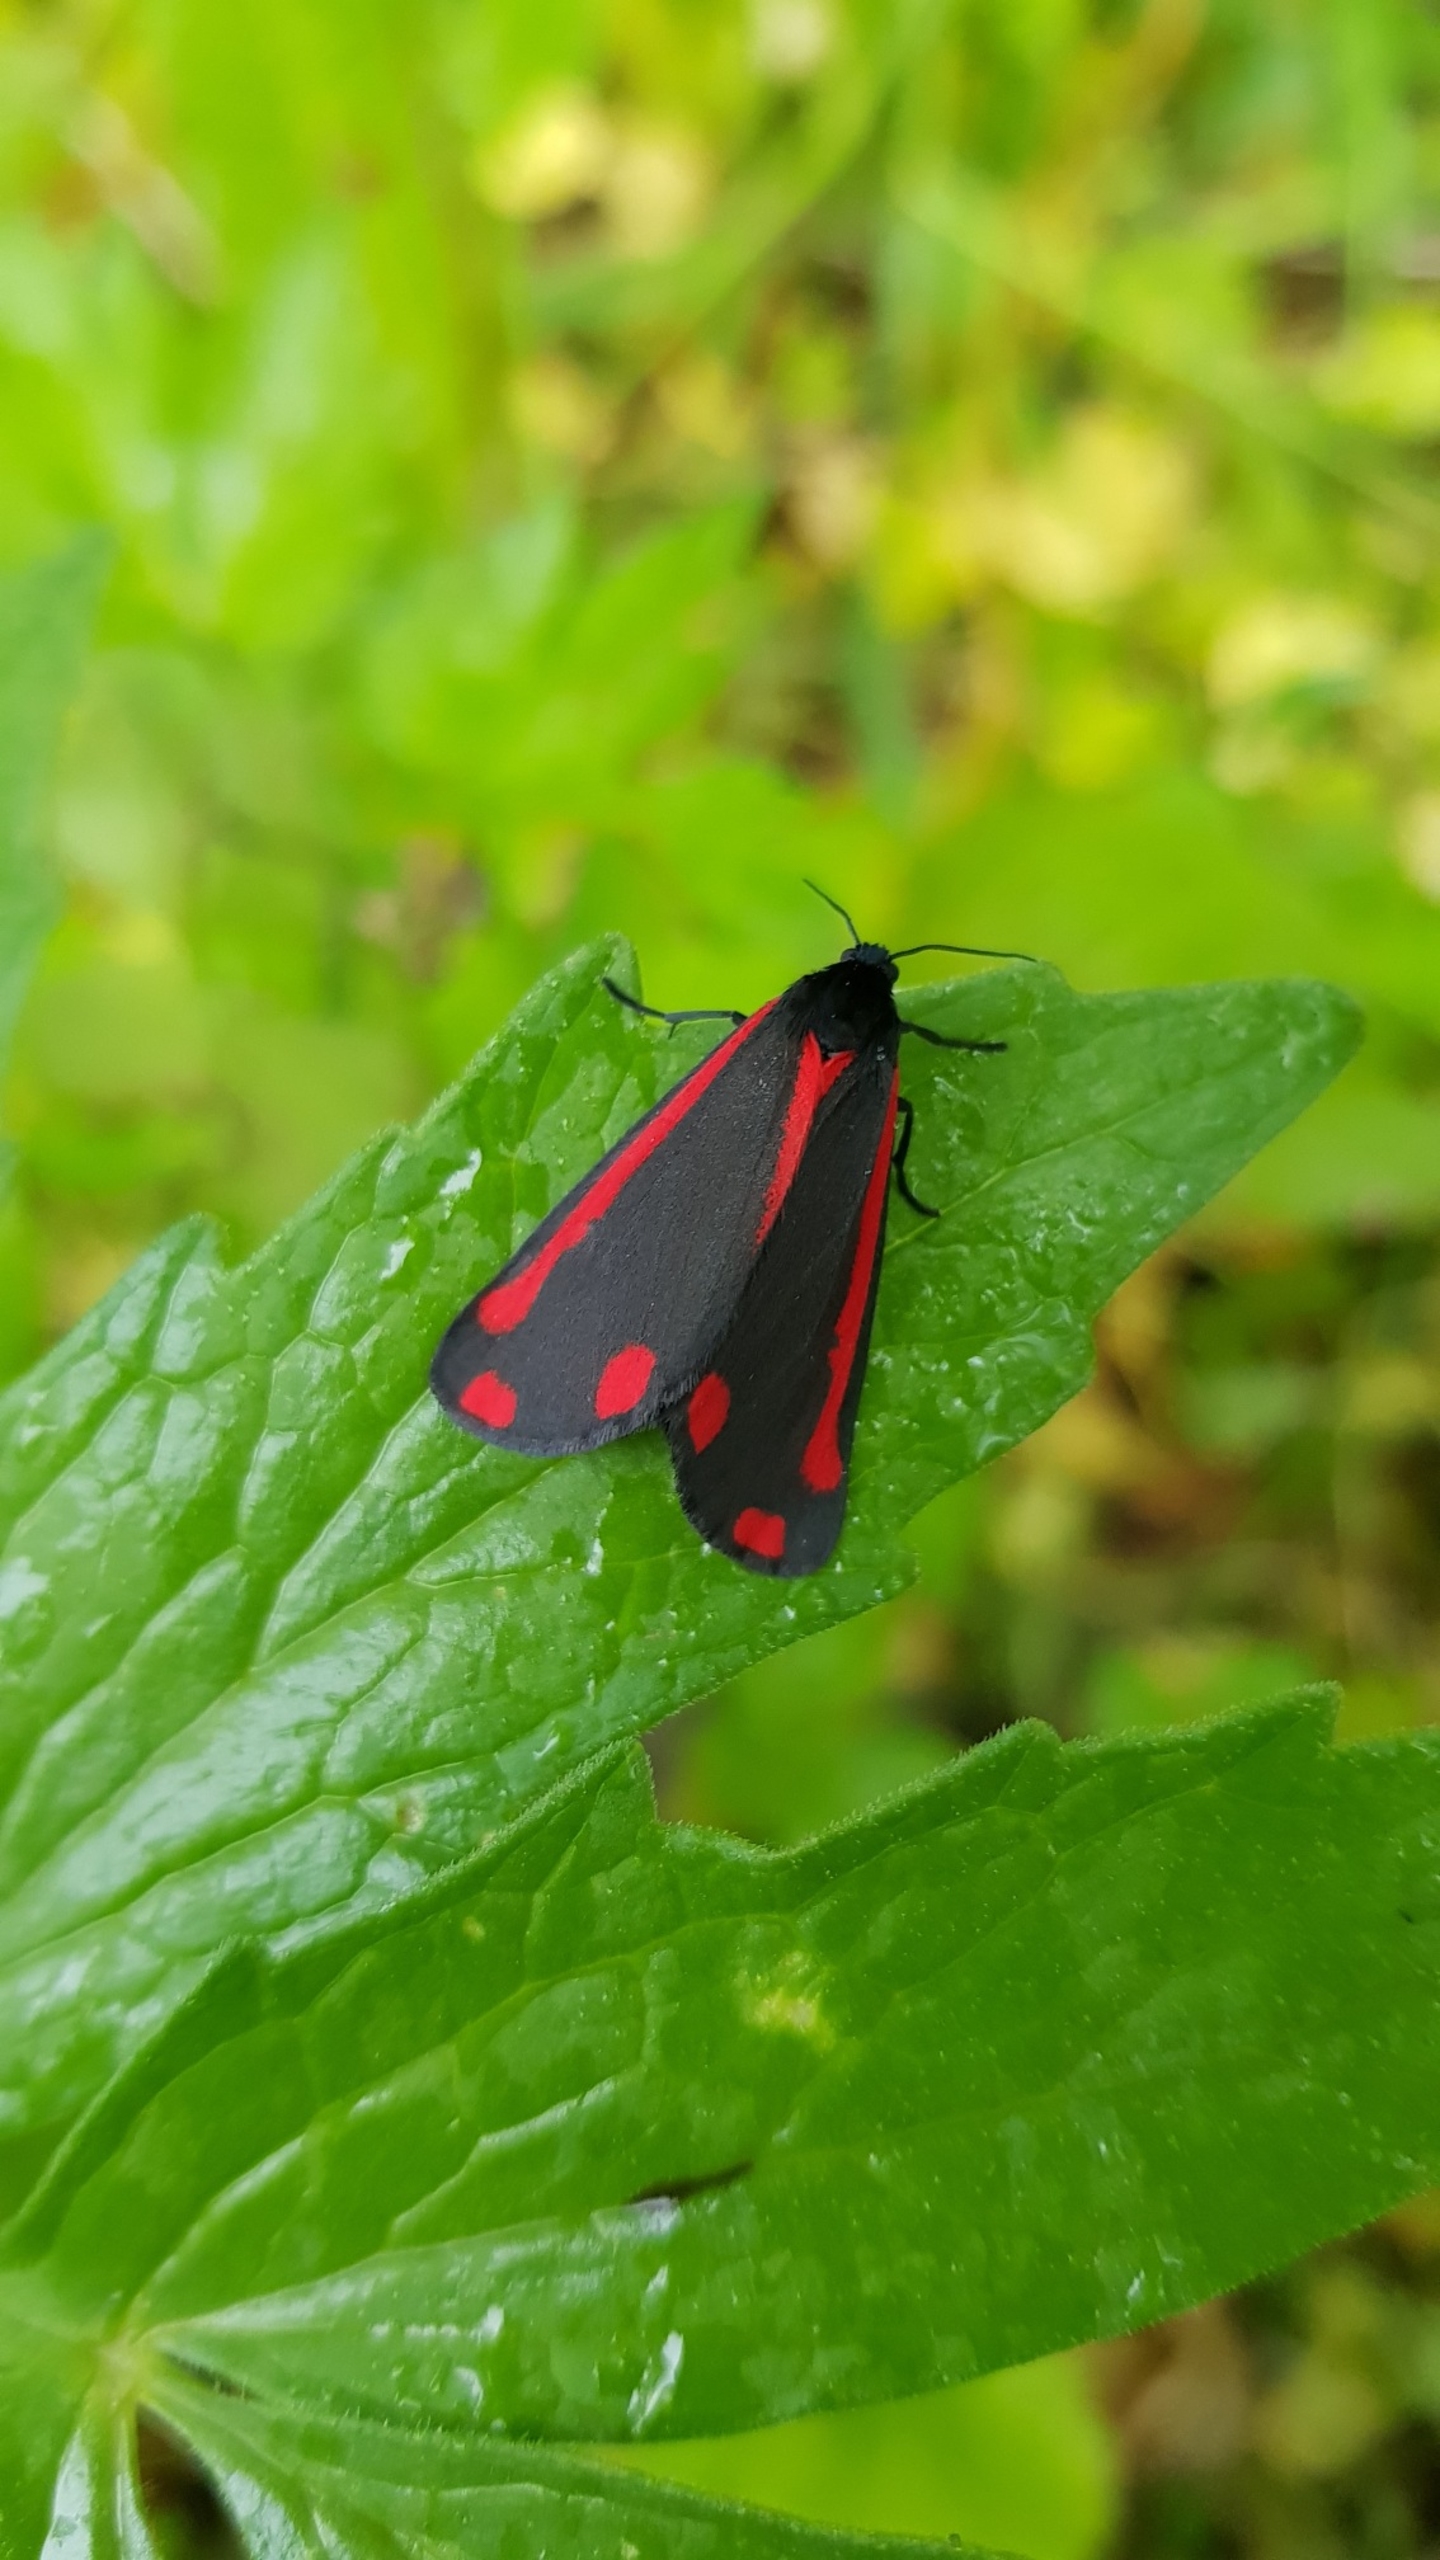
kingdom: Animalia
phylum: Arthropoda
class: Insecta
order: Lepidoptera
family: Erebidae
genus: Tyria
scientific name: Tyria jacobaeae
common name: Blodplet
